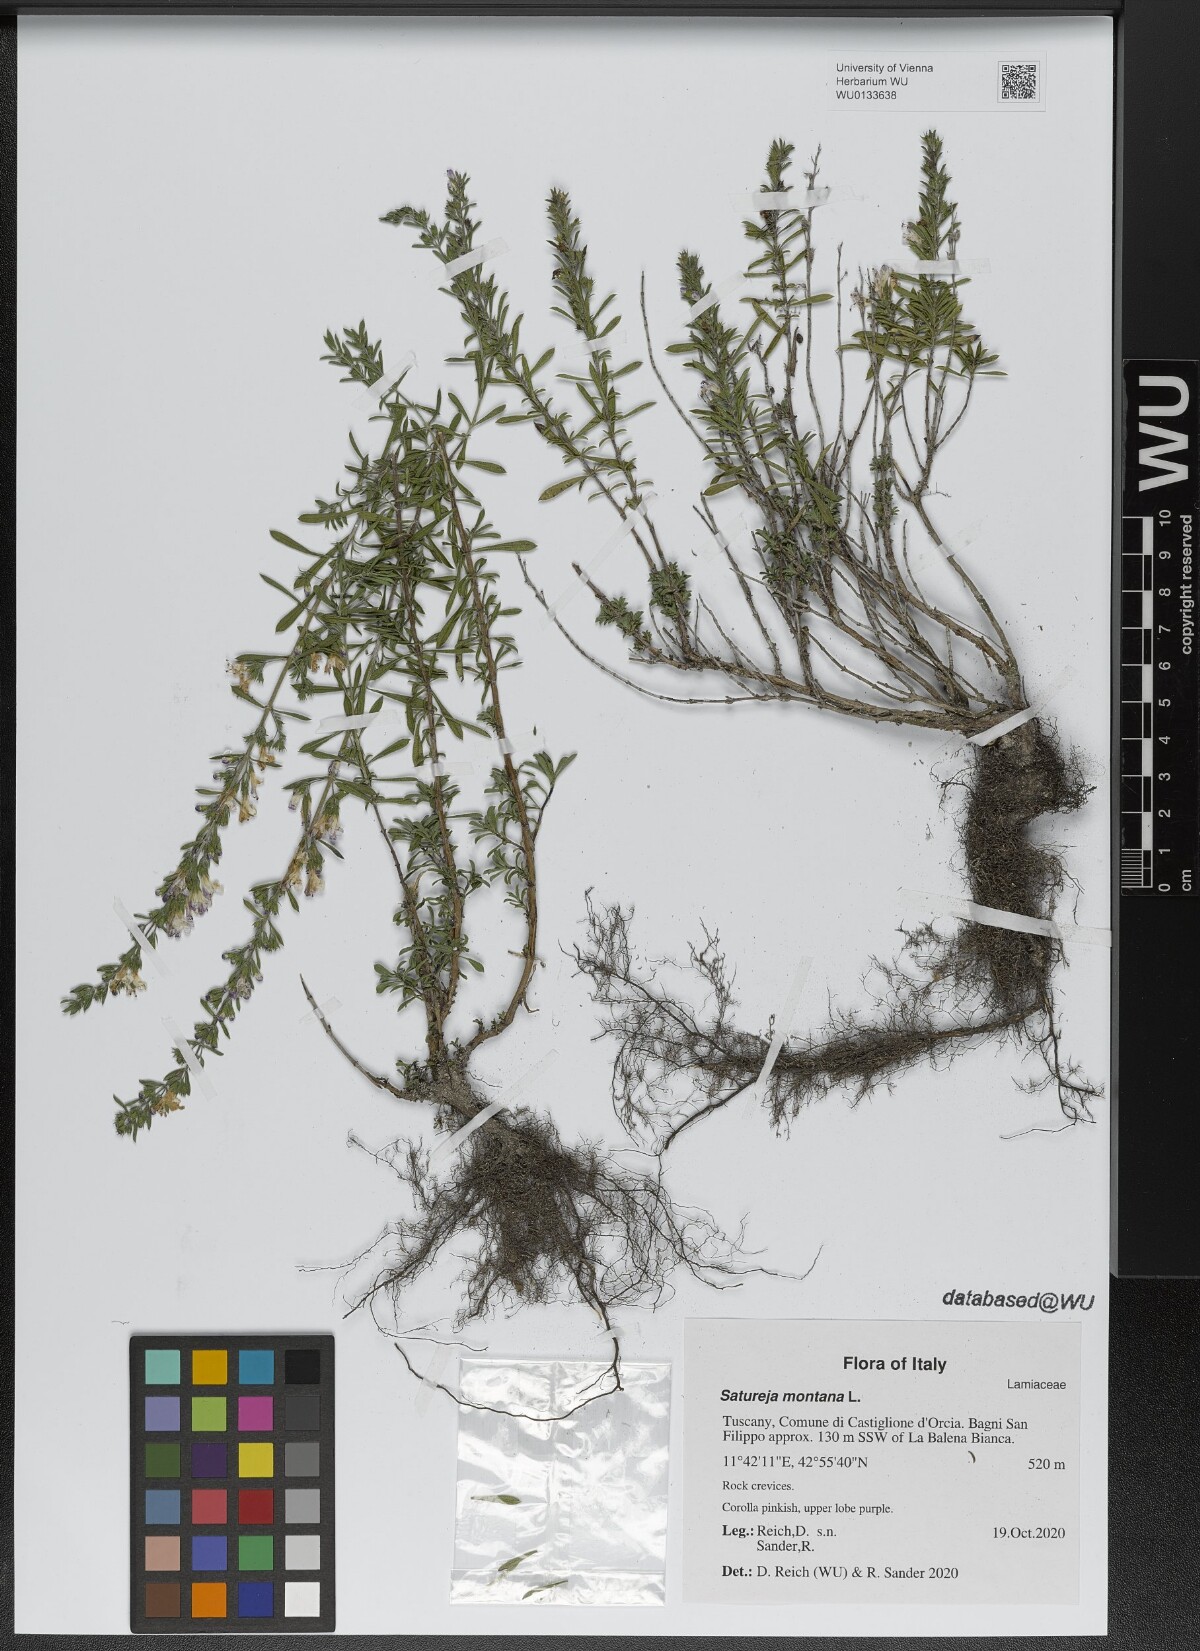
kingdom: Plantae
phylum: Tracheophyta
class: Magnoliopsida
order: Lamiales
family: Lamiaceae
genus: Satureja
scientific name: Satureja montana
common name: Winter savory
